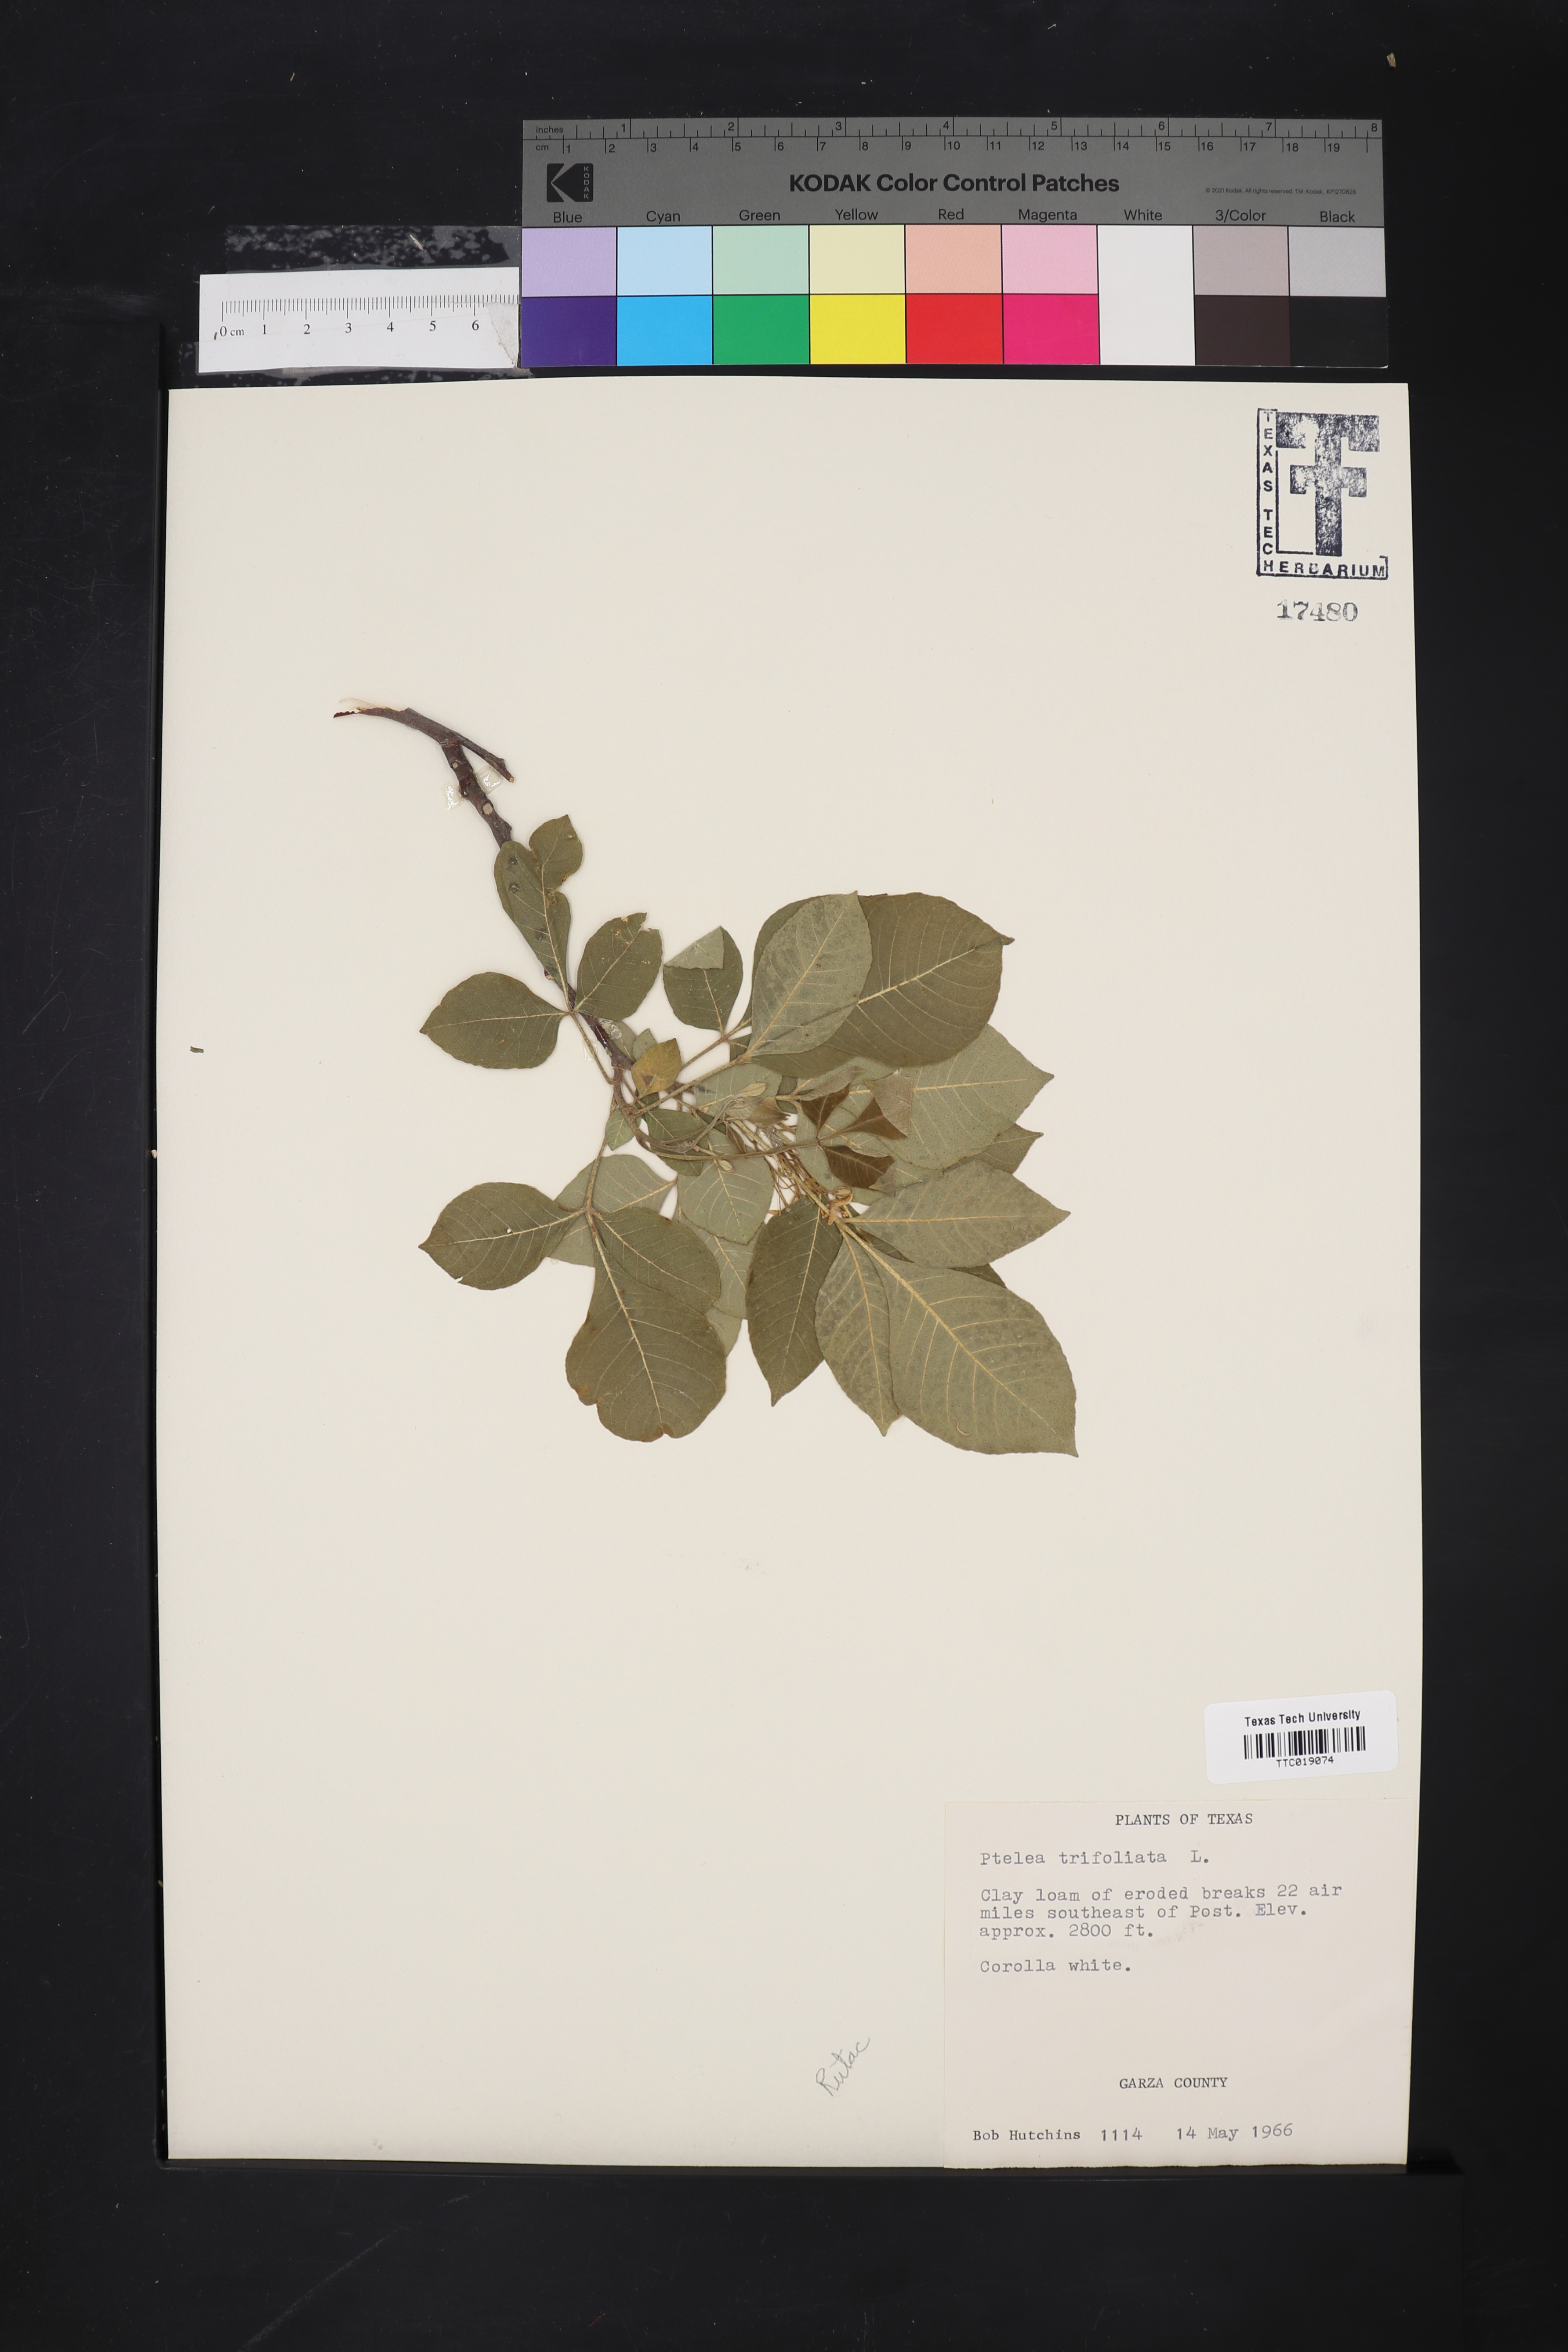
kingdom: Plantae
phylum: Tracheophyta
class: Magnoliopsida
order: Sapindales
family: Rutaceae
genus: Ptelea
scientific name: Ptelea trifoliata
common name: Common hop-tree
